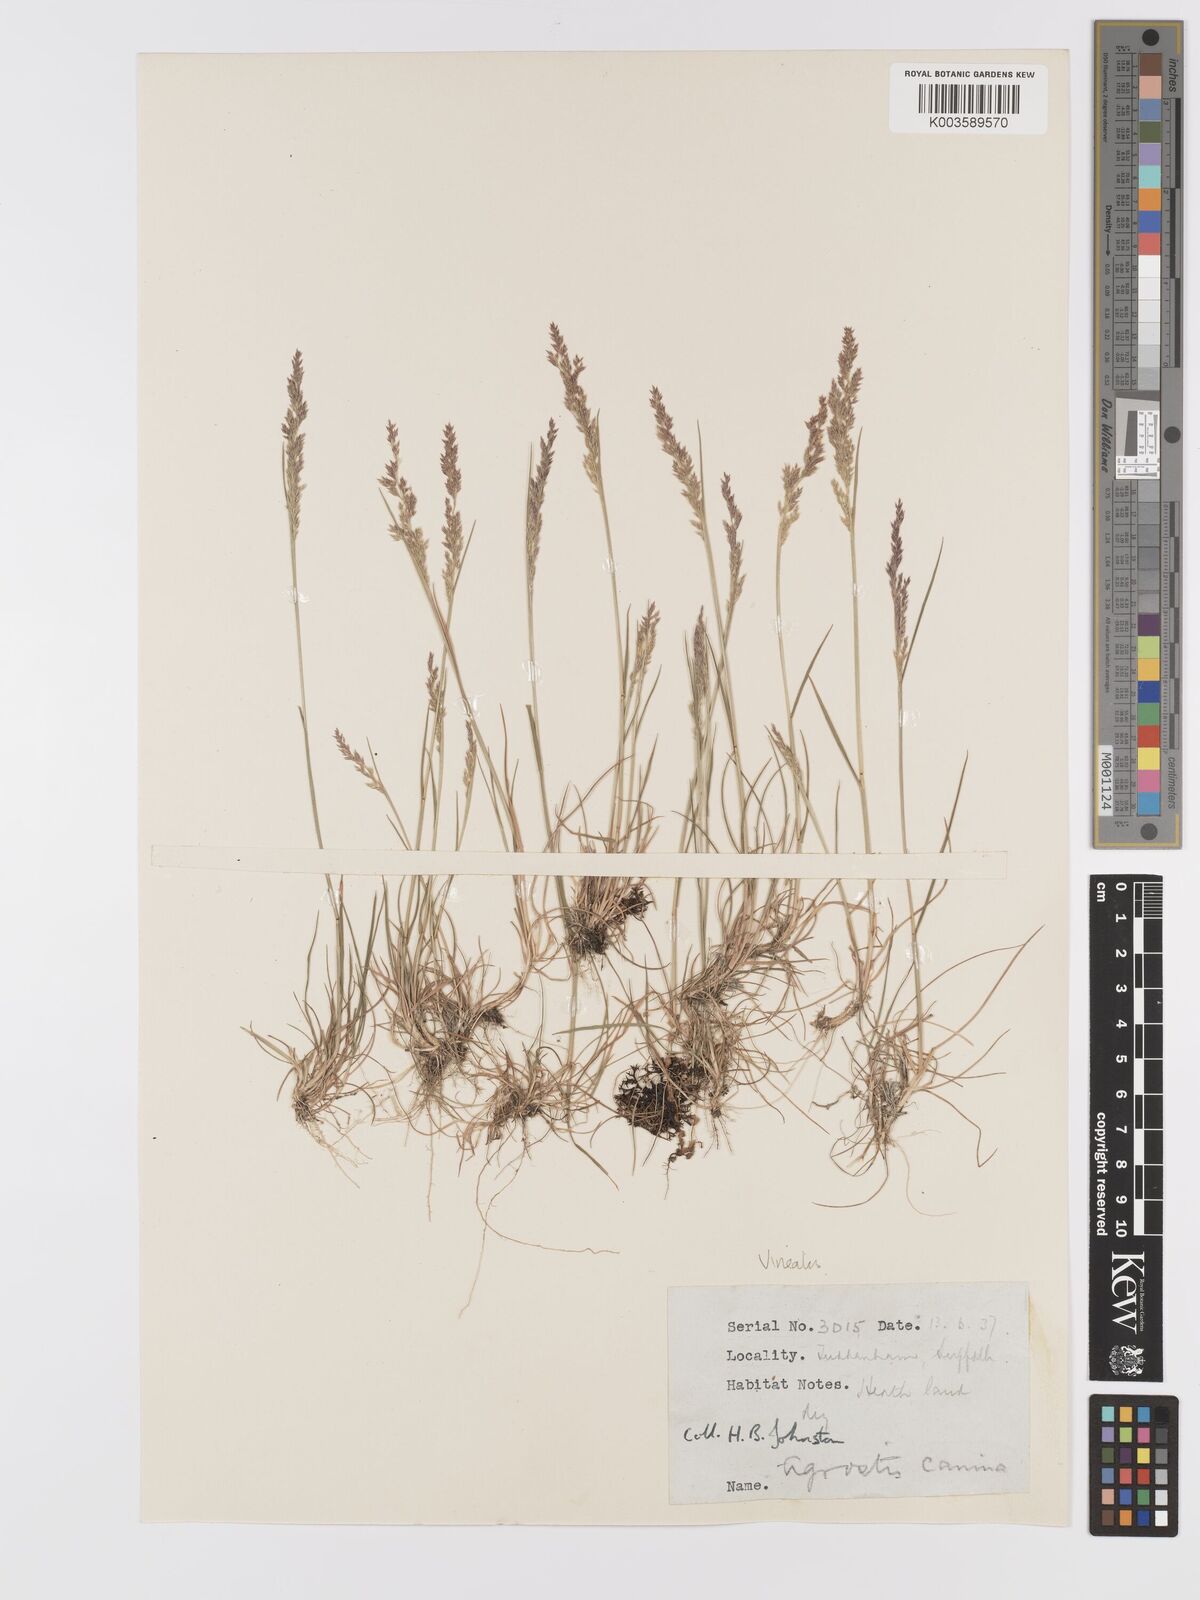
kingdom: Plantae
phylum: Tracheophyta
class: Liliopsida
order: Poales
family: Poaceae
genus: Agrostis
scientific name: Agrostis
